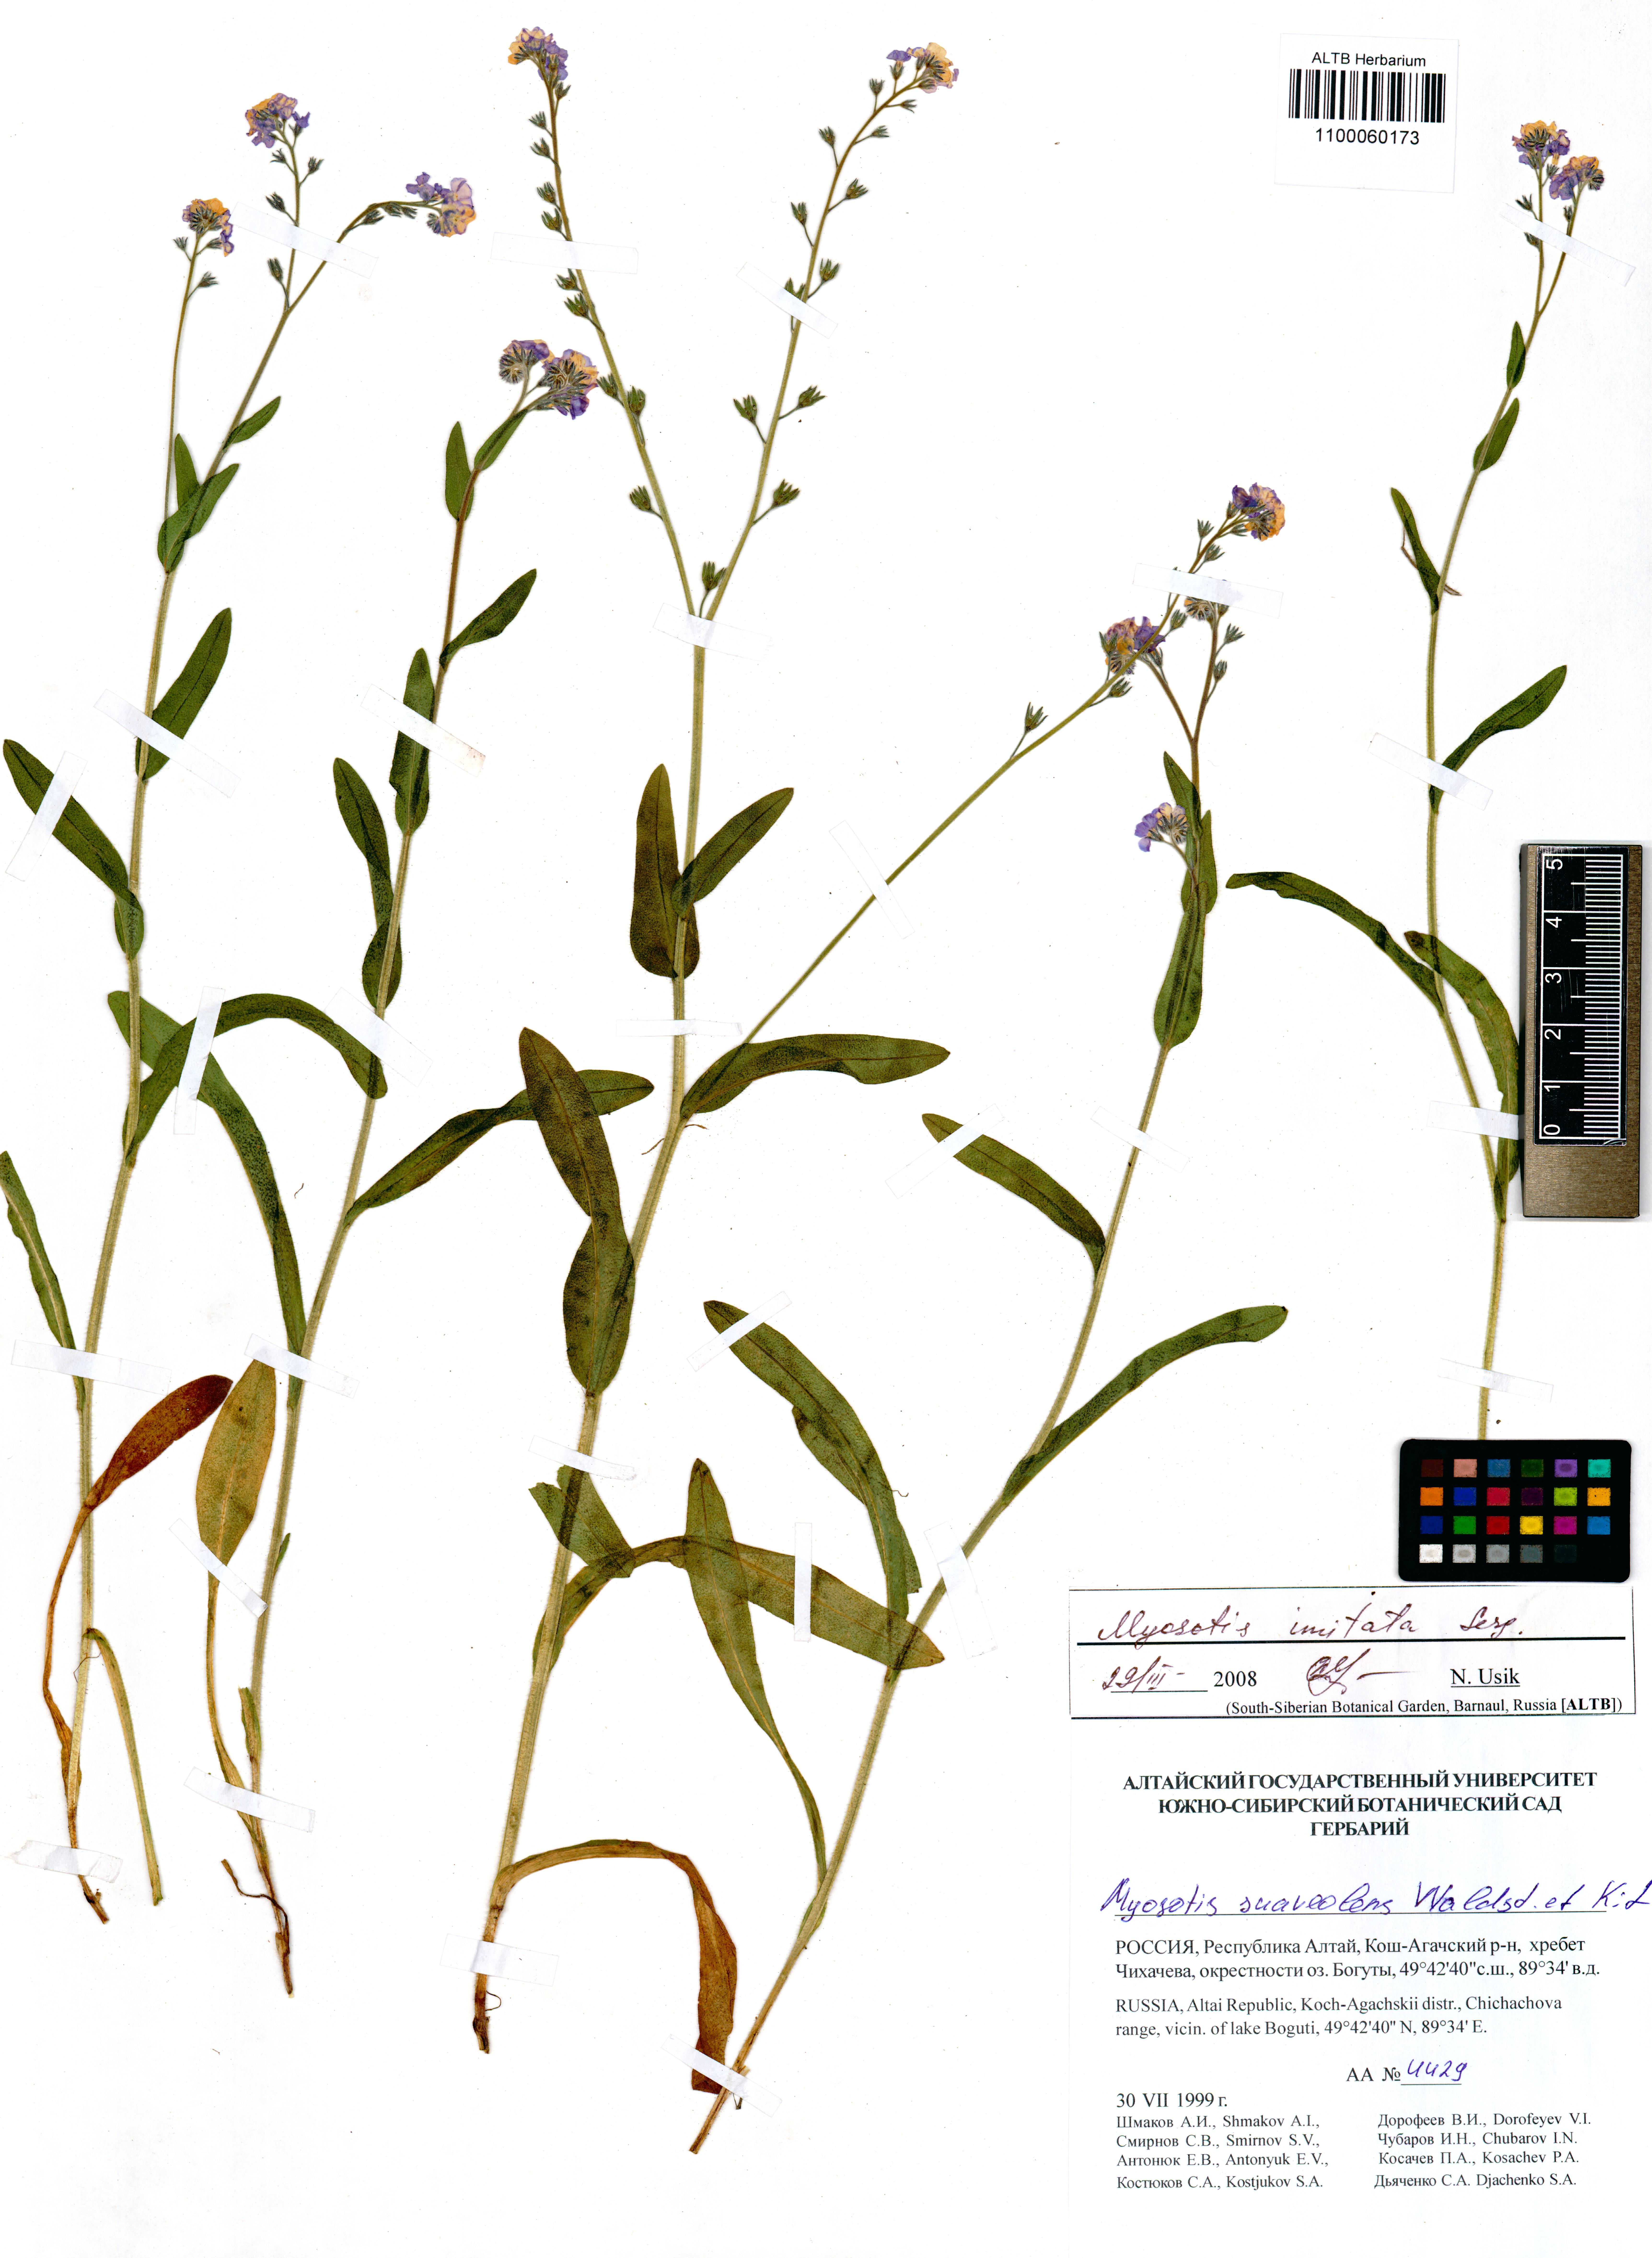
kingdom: Plantae
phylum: Tracheophyta
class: Magnoliopsida
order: Boraginales
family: Boraginaceae
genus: Myosotis
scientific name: Myosotis imitata
